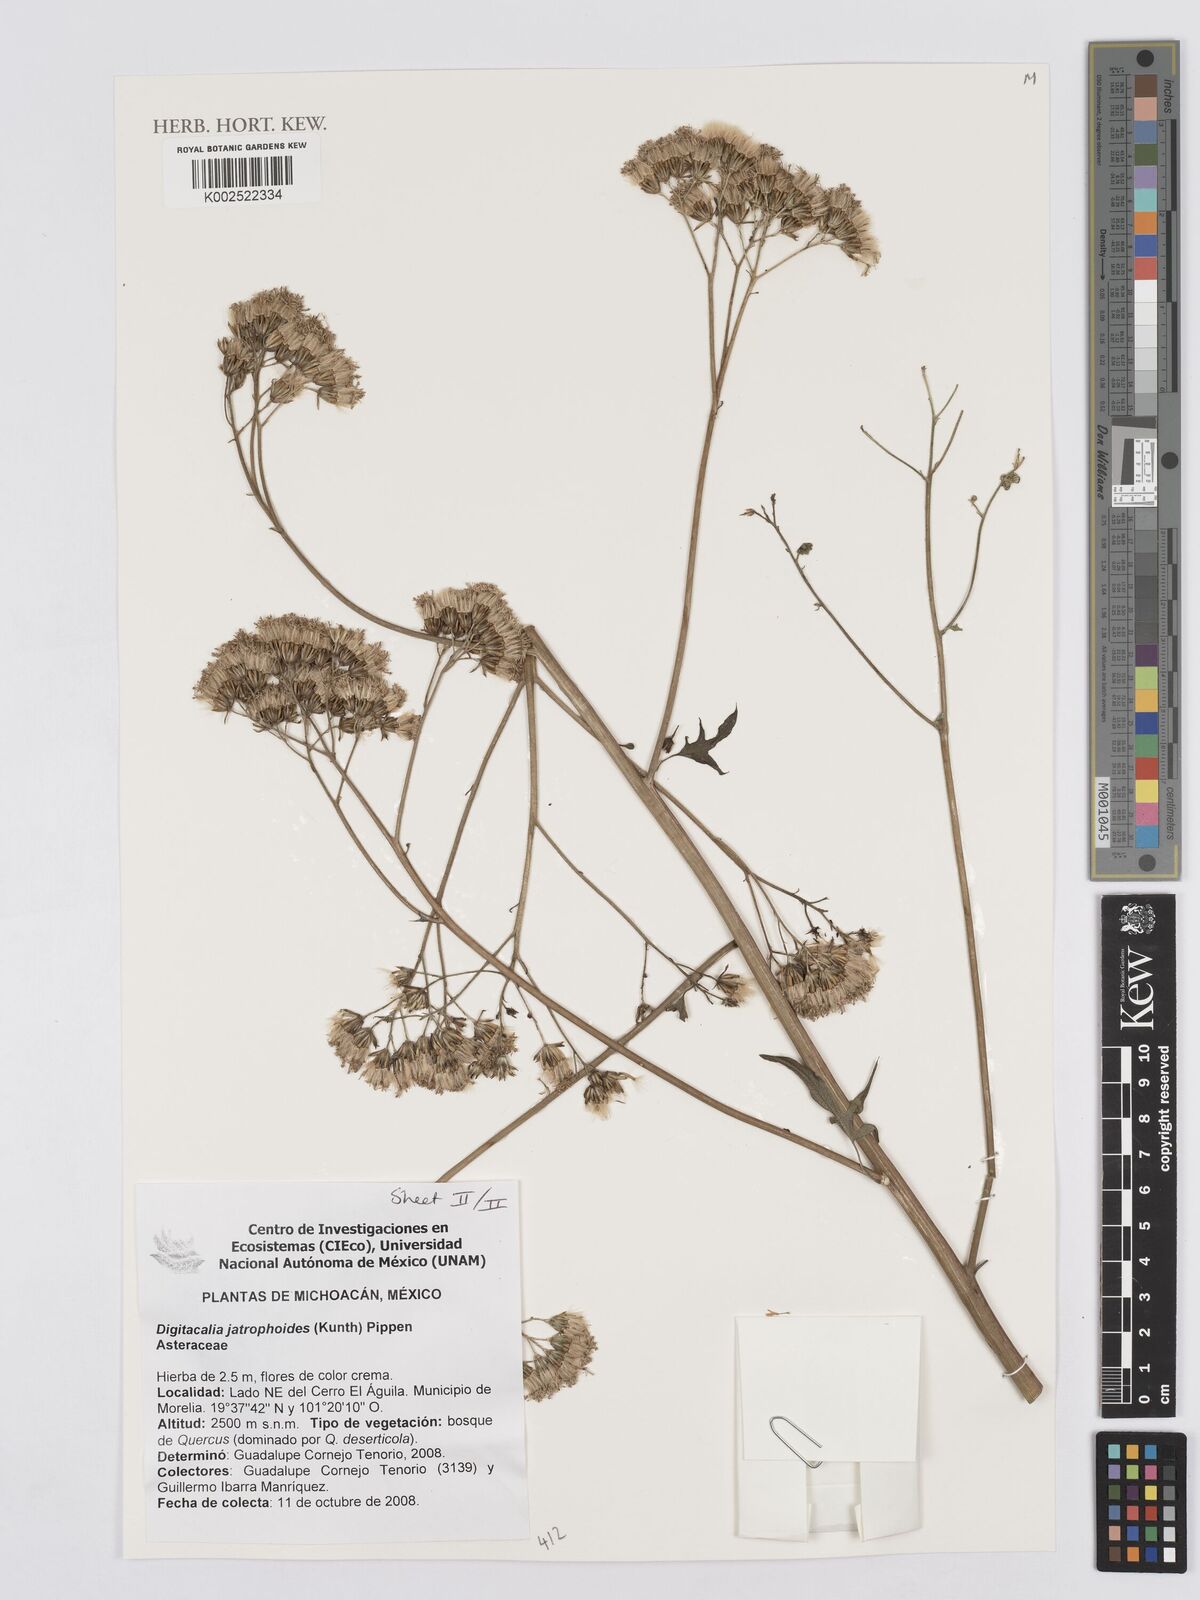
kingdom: Plantae
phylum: Tracheophyta
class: Magnoliopsida
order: Asterales
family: Asteraceae
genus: Digitacalia
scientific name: Digitacalia jatrophoides
